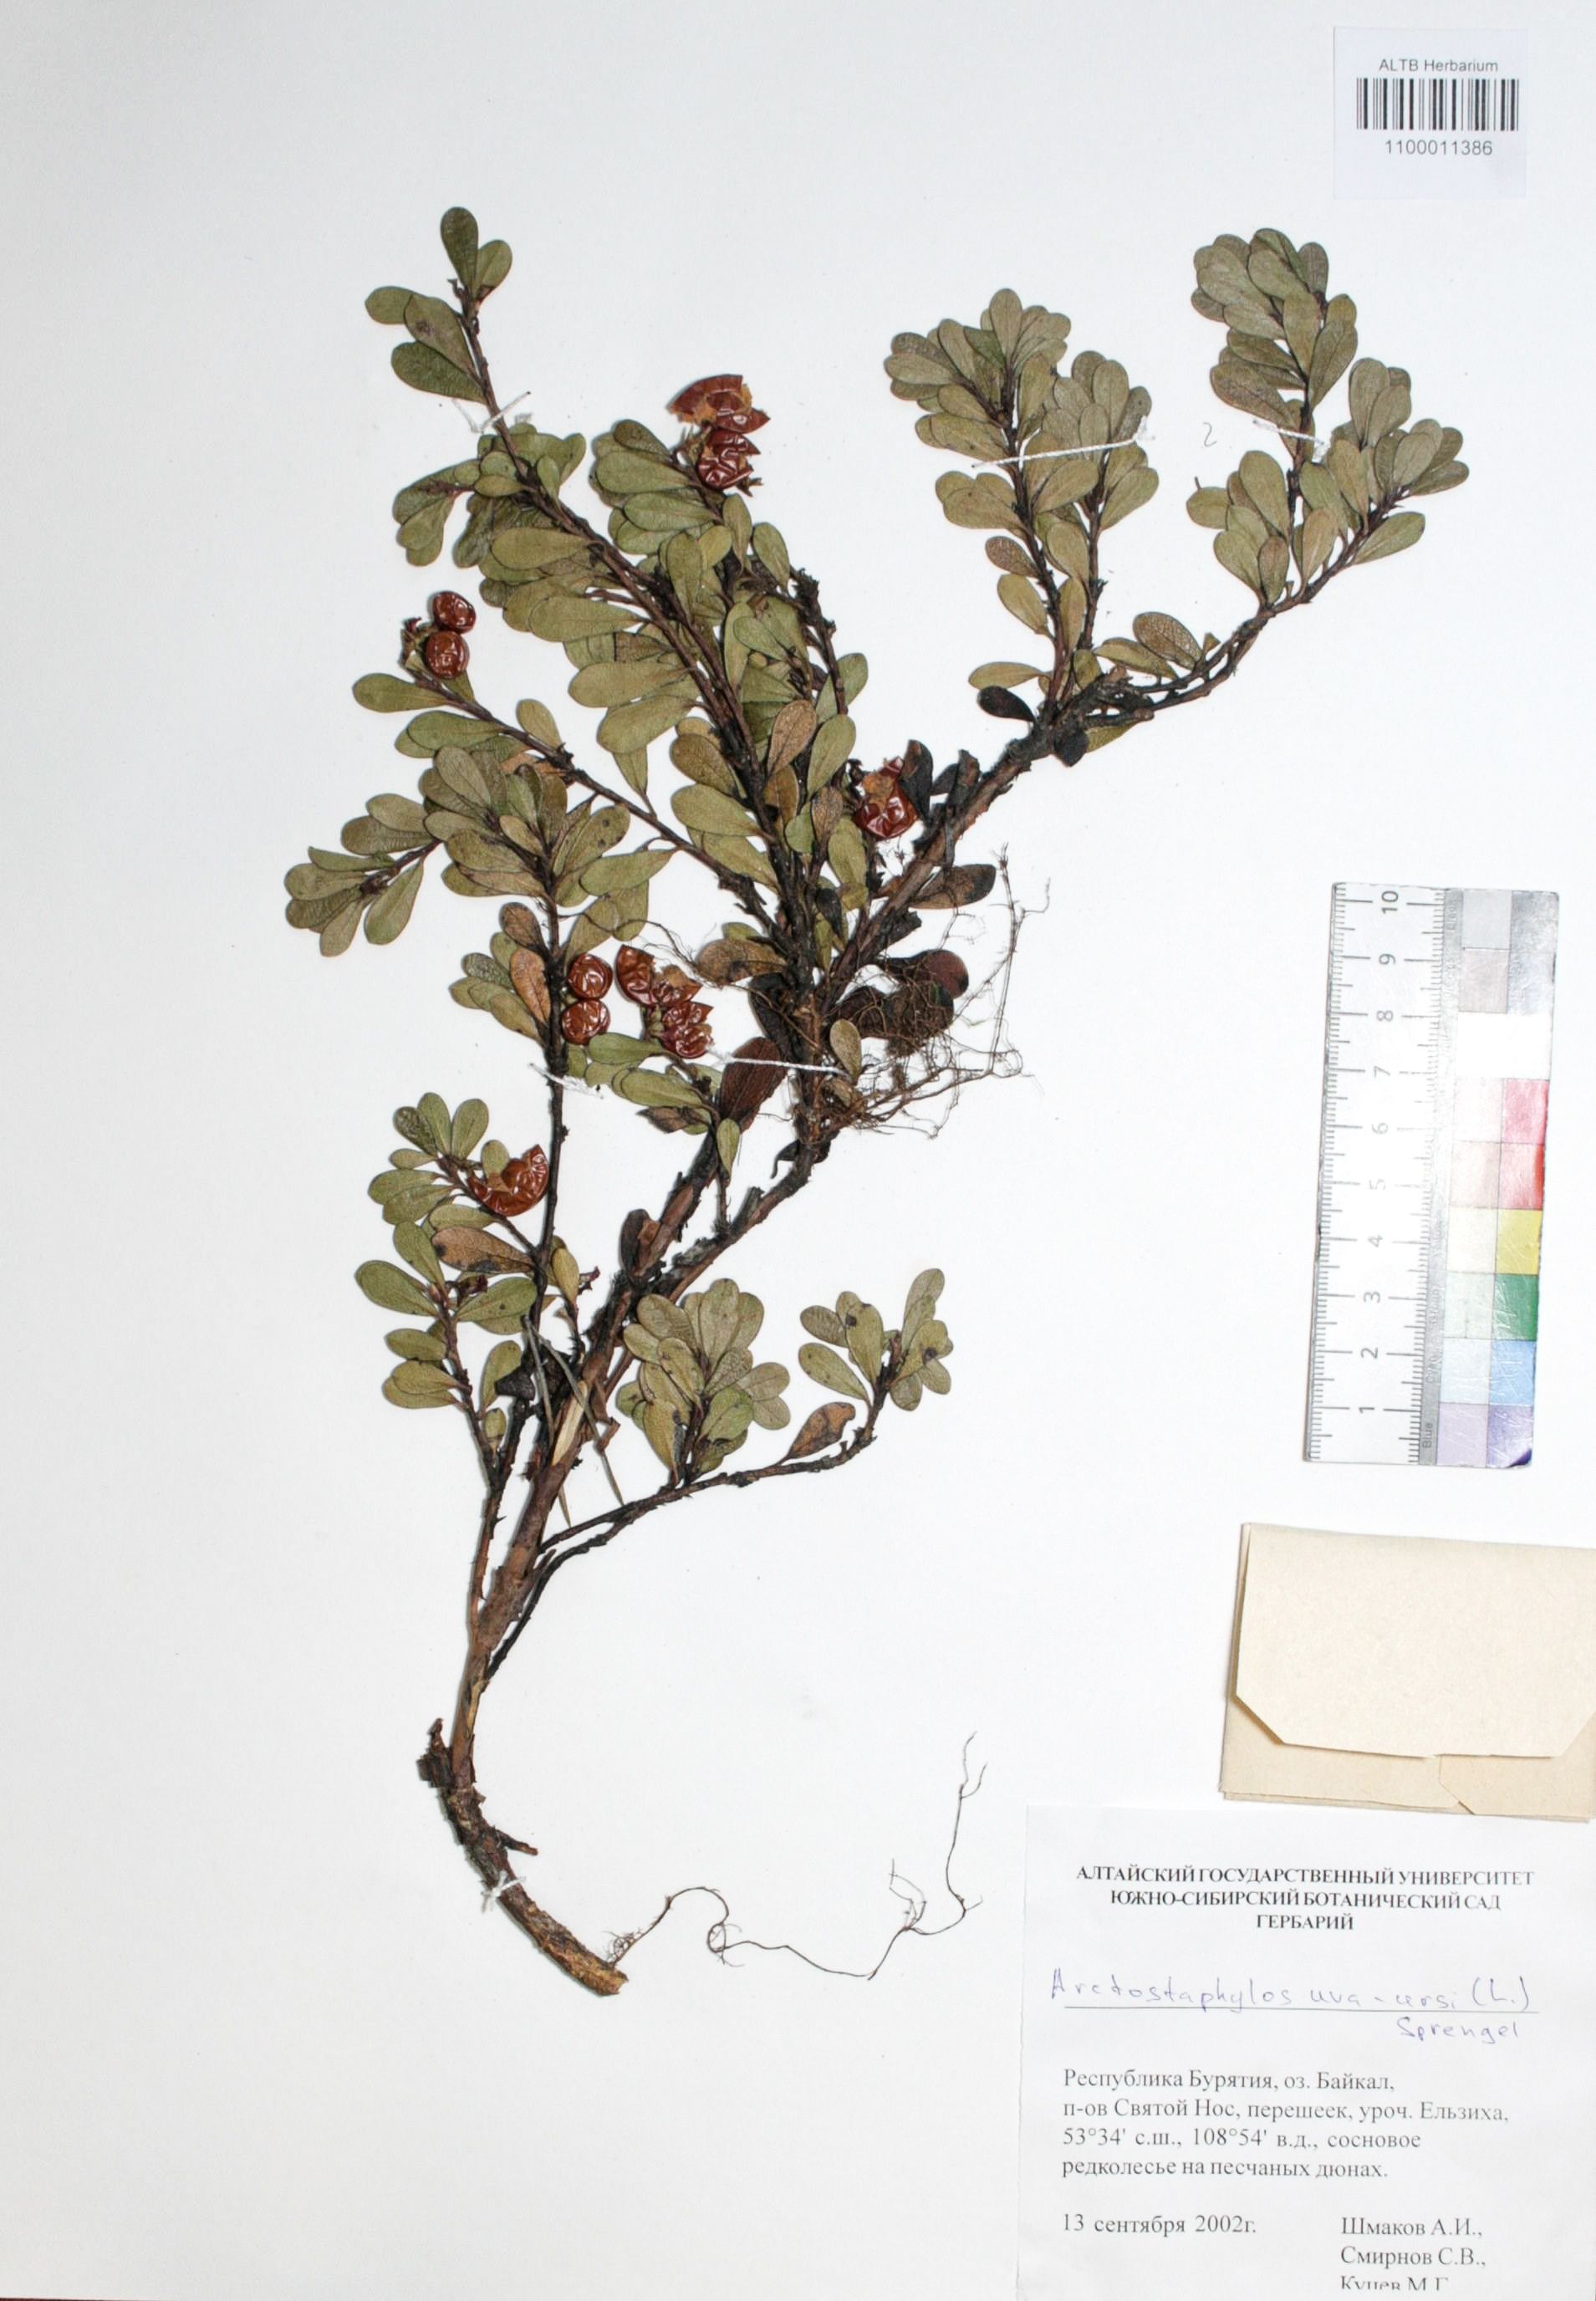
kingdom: Plantae
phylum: Tracheophyta
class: Magnoliopsida
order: Ericales
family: Ericaceae
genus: Arctostaphylos
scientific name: Arctostaphylos uva-ursi
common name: Bearberry
